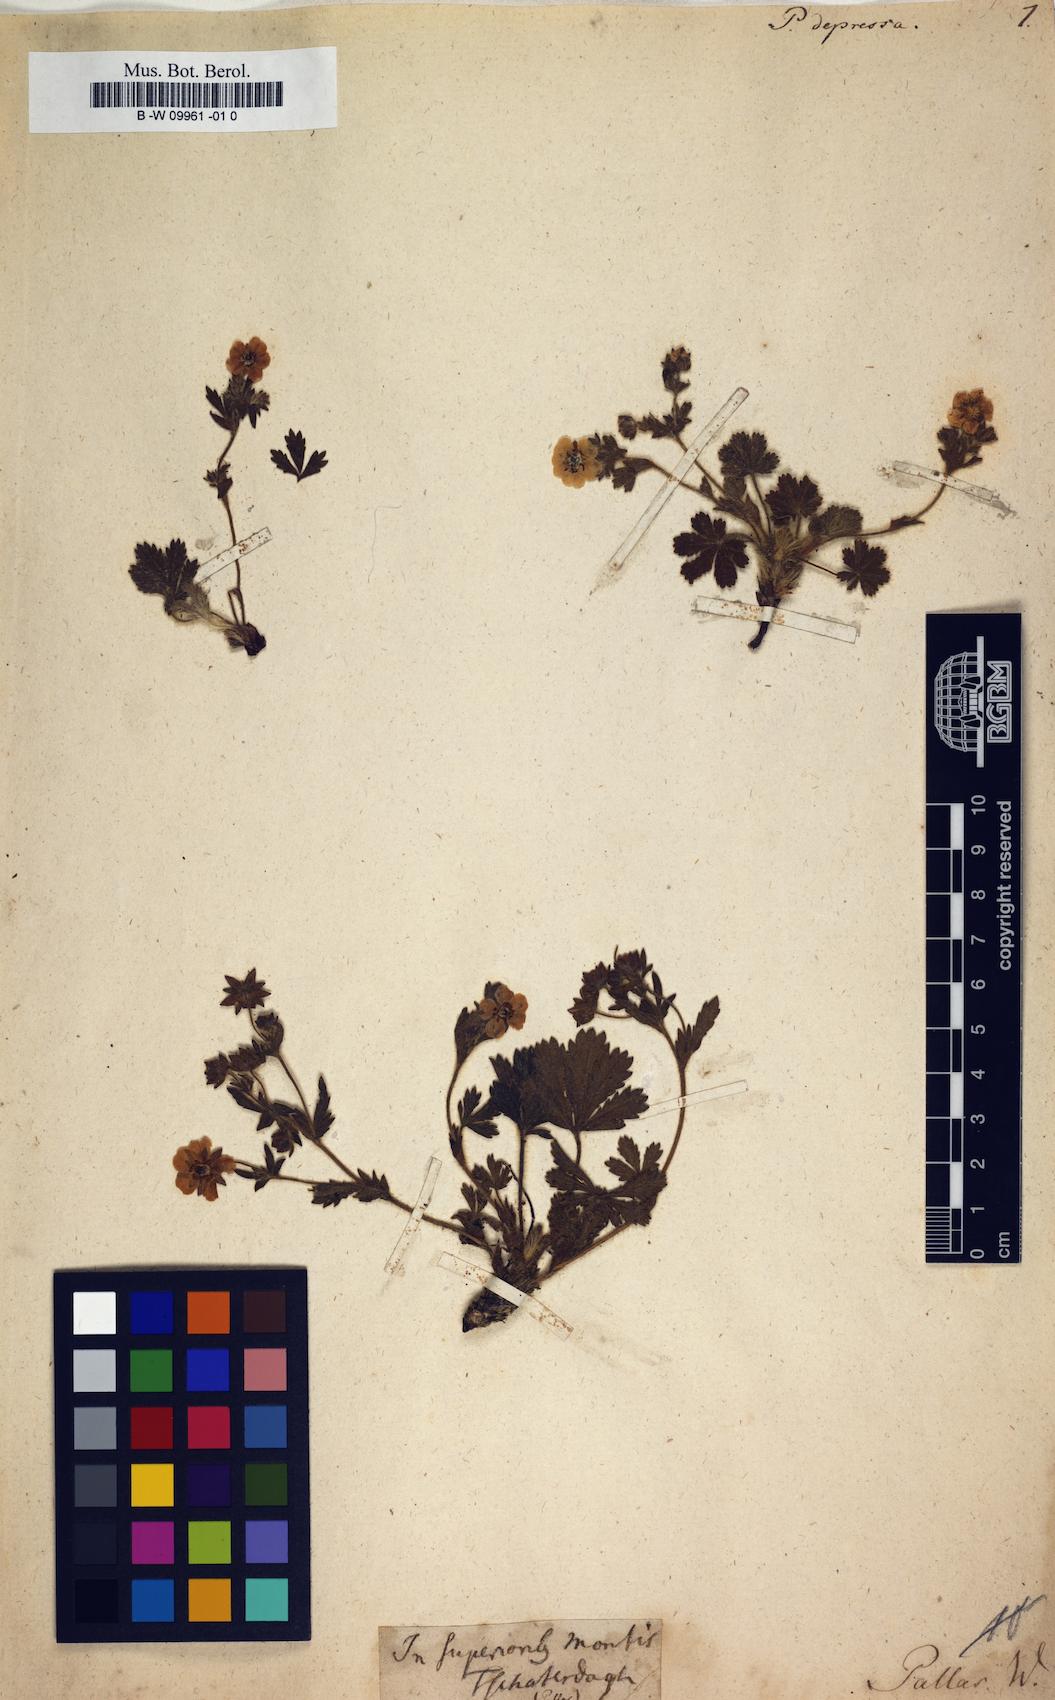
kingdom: Plantae
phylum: Tracheophyta
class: Magnoliopsida
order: Rosales
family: Rosaceae
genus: Potentilla
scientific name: Potentilla humifusa
